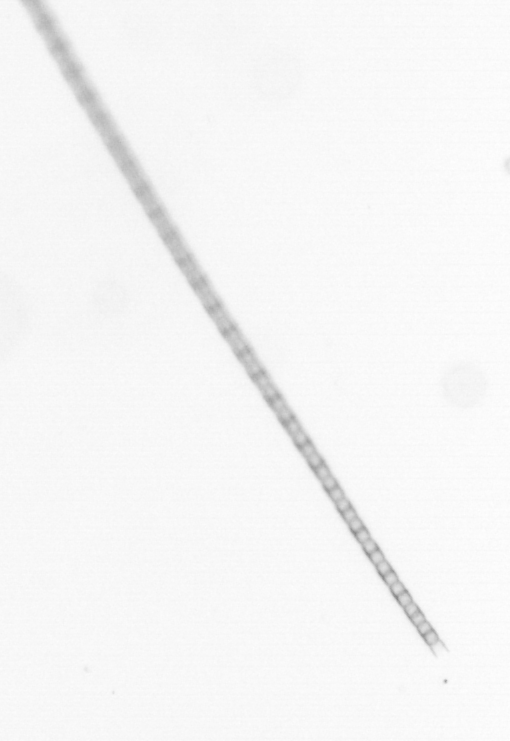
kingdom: Chromista
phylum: Ochrophyta
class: Bacillariophyceae
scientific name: Bacillariophyceae
